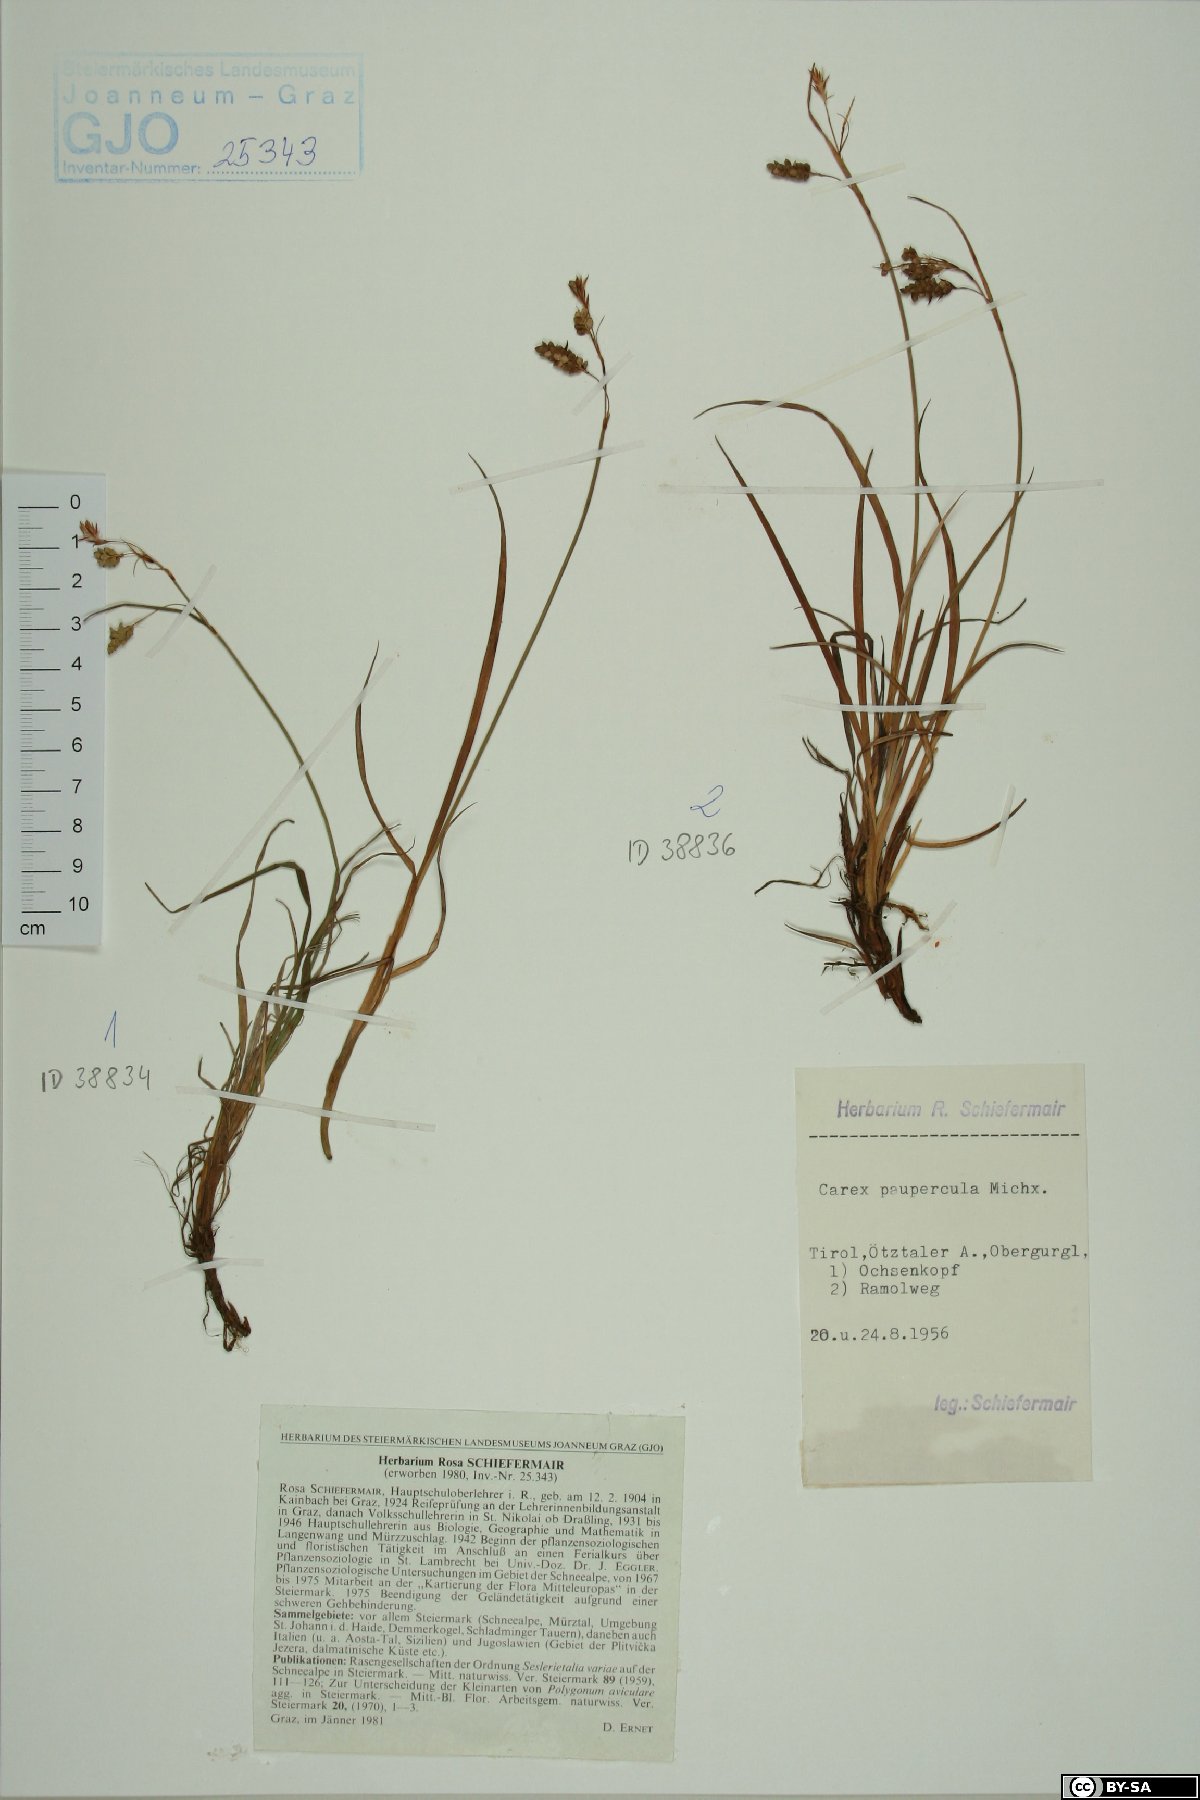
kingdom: Plantae
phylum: Tracheophyta
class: Liliopsida
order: Poales
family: Cyperaceae
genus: Carex
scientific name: Carex magellanica
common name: Bog sedge
